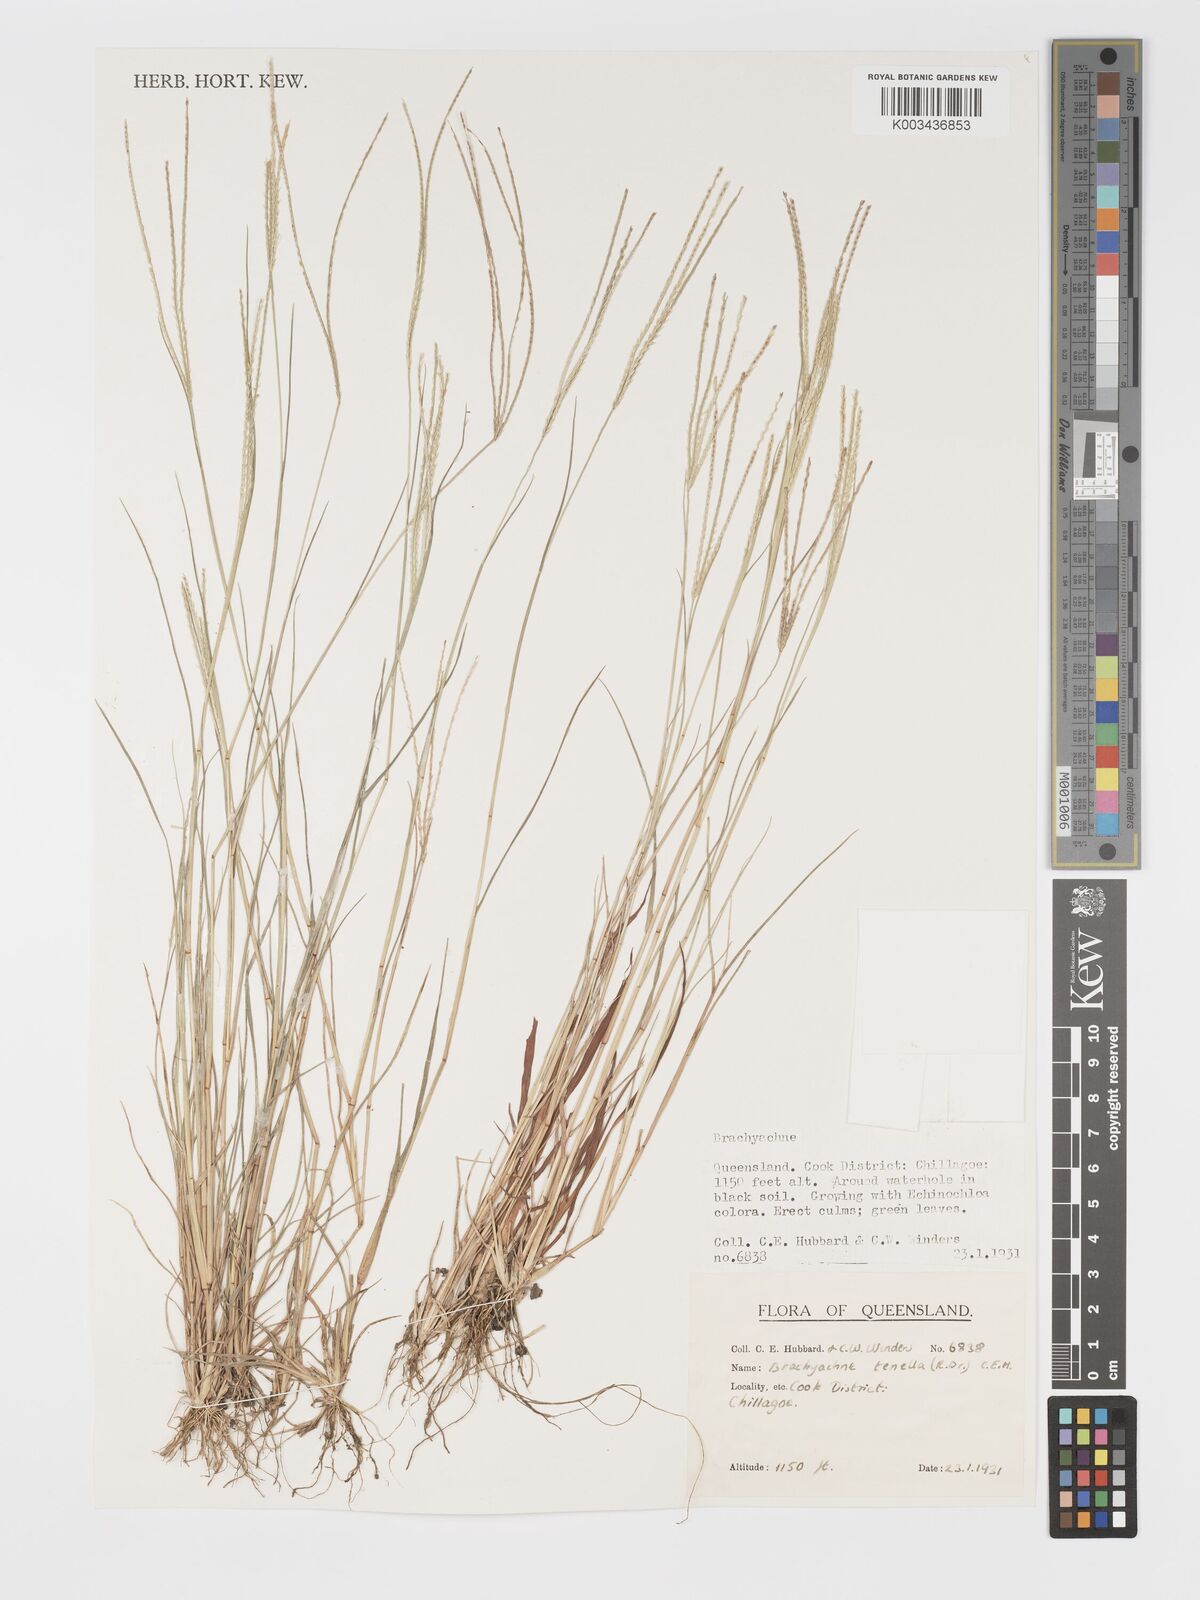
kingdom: Plantae
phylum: Tracheophyta
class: Liliopsida
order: Poales
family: Poaceae
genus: Cynodon
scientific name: Cynodon tenellus
